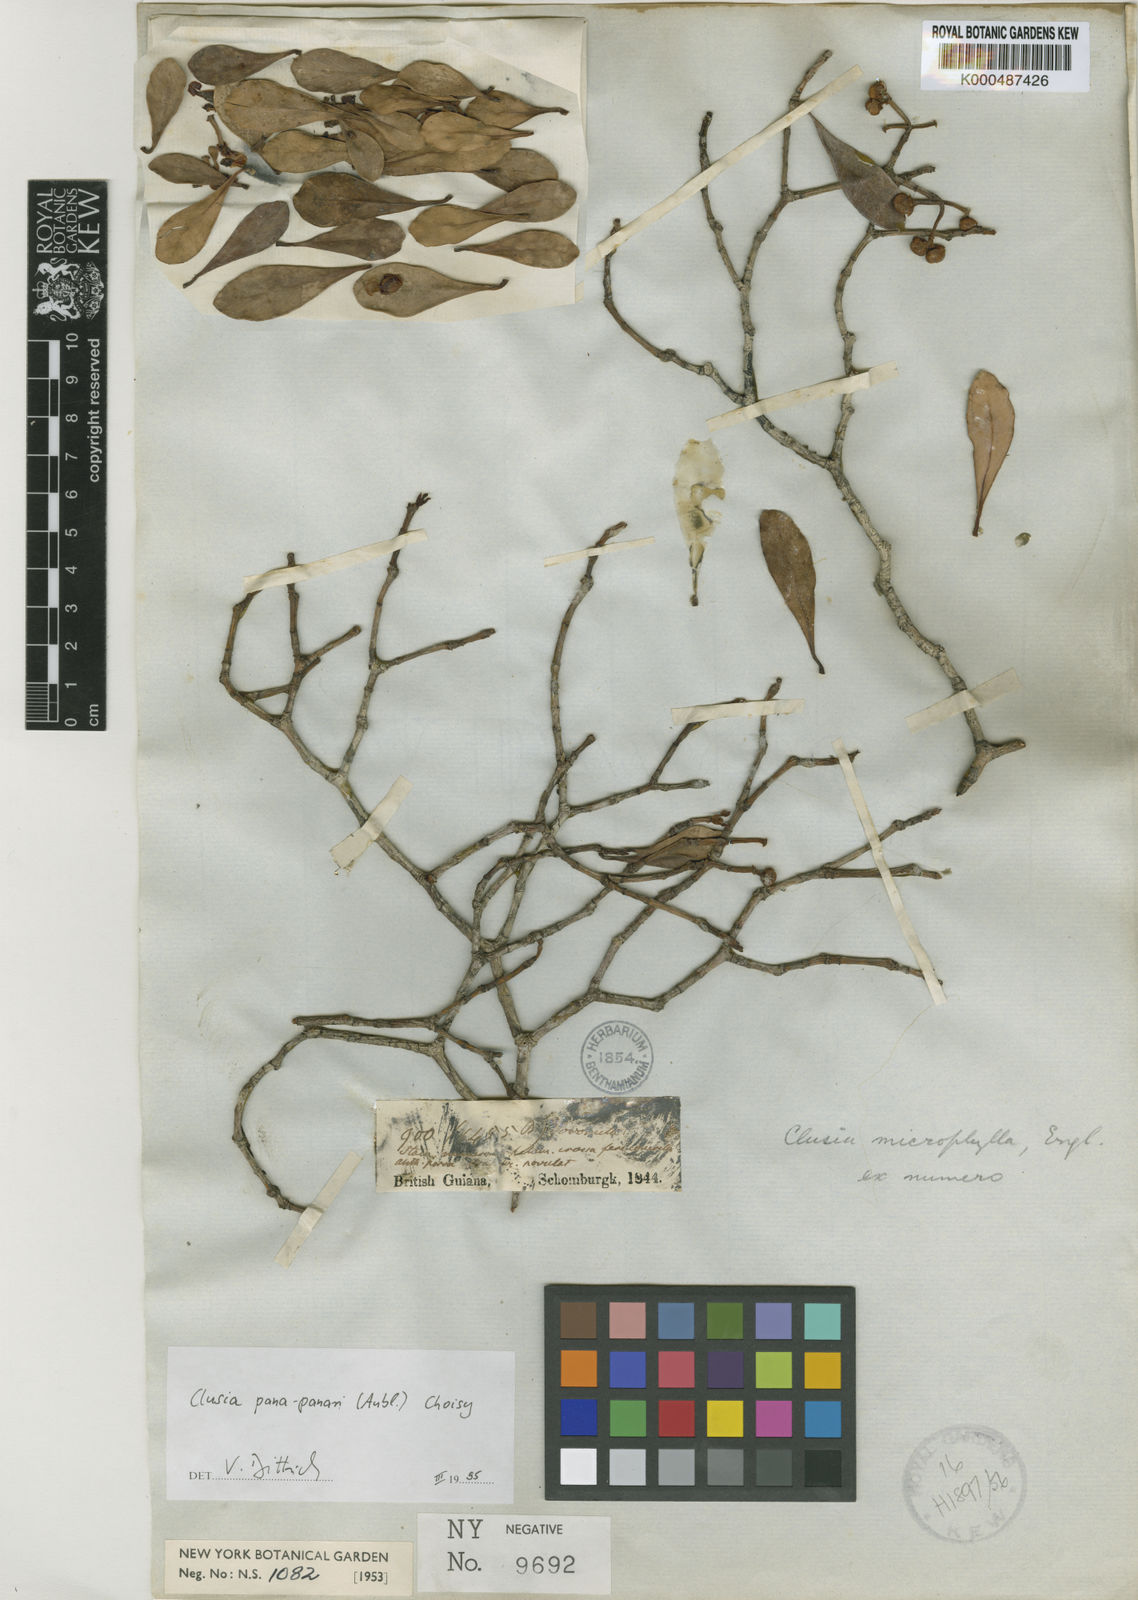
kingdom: Plantae
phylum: Tracheophyta
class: Magnoliopsida
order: Malpighiales
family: Clusiaceae
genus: Clusia
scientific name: Clusia panapanari
